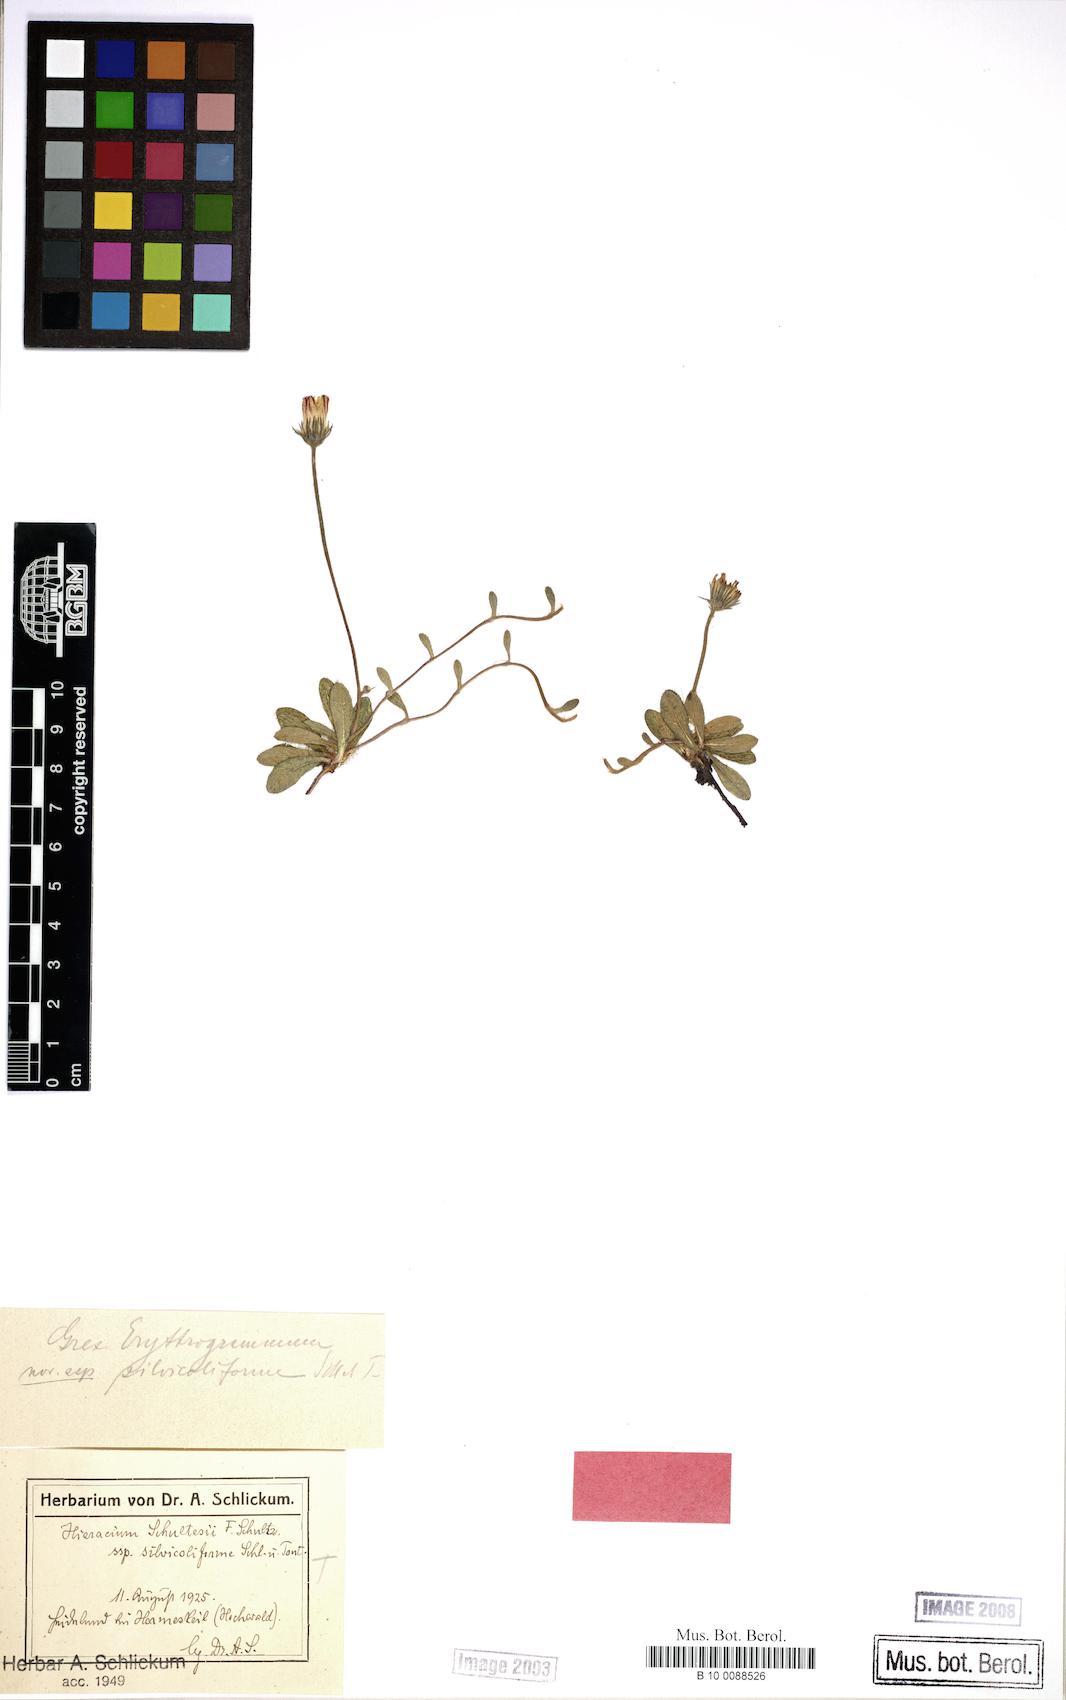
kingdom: Plantae
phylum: Tracheophyta
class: Magnoliopsida
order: Asterales
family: Asteraceae
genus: Pilosella
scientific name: Pilosella schultesii
